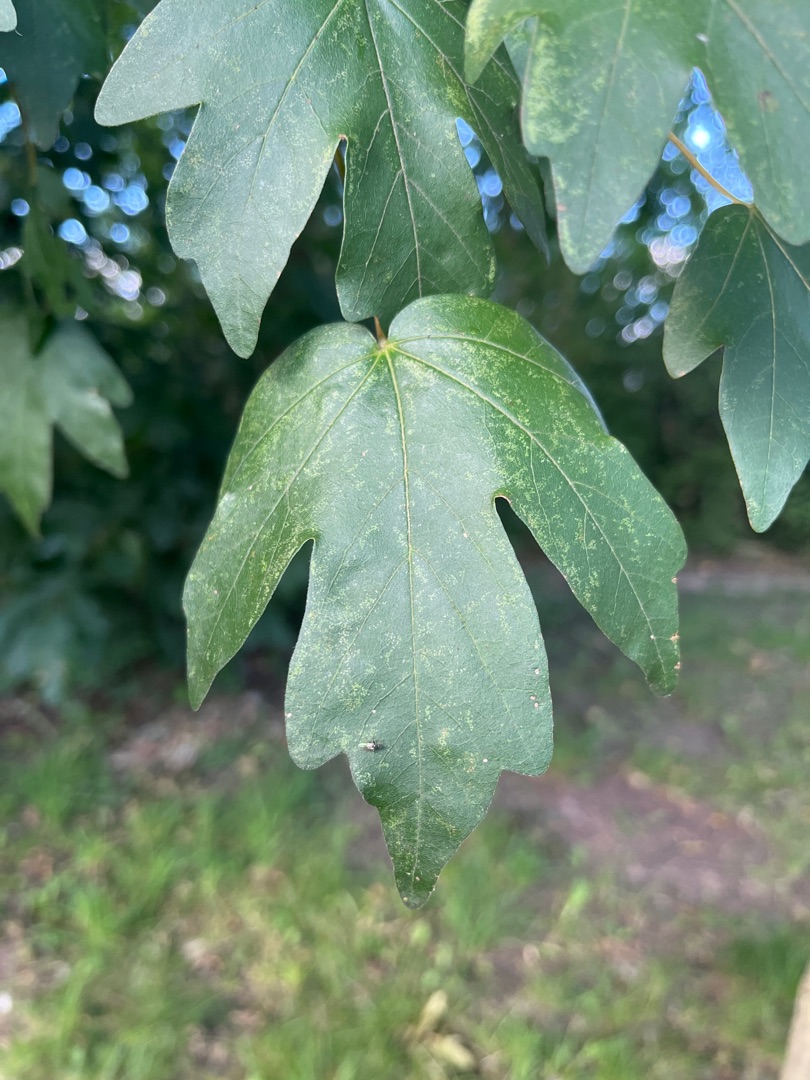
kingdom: Plantae
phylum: Tracheophyta
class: Magnoliopsida
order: Sapindales
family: Sapindaceae
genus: Acer
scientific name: Acer campestre
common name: Navr
